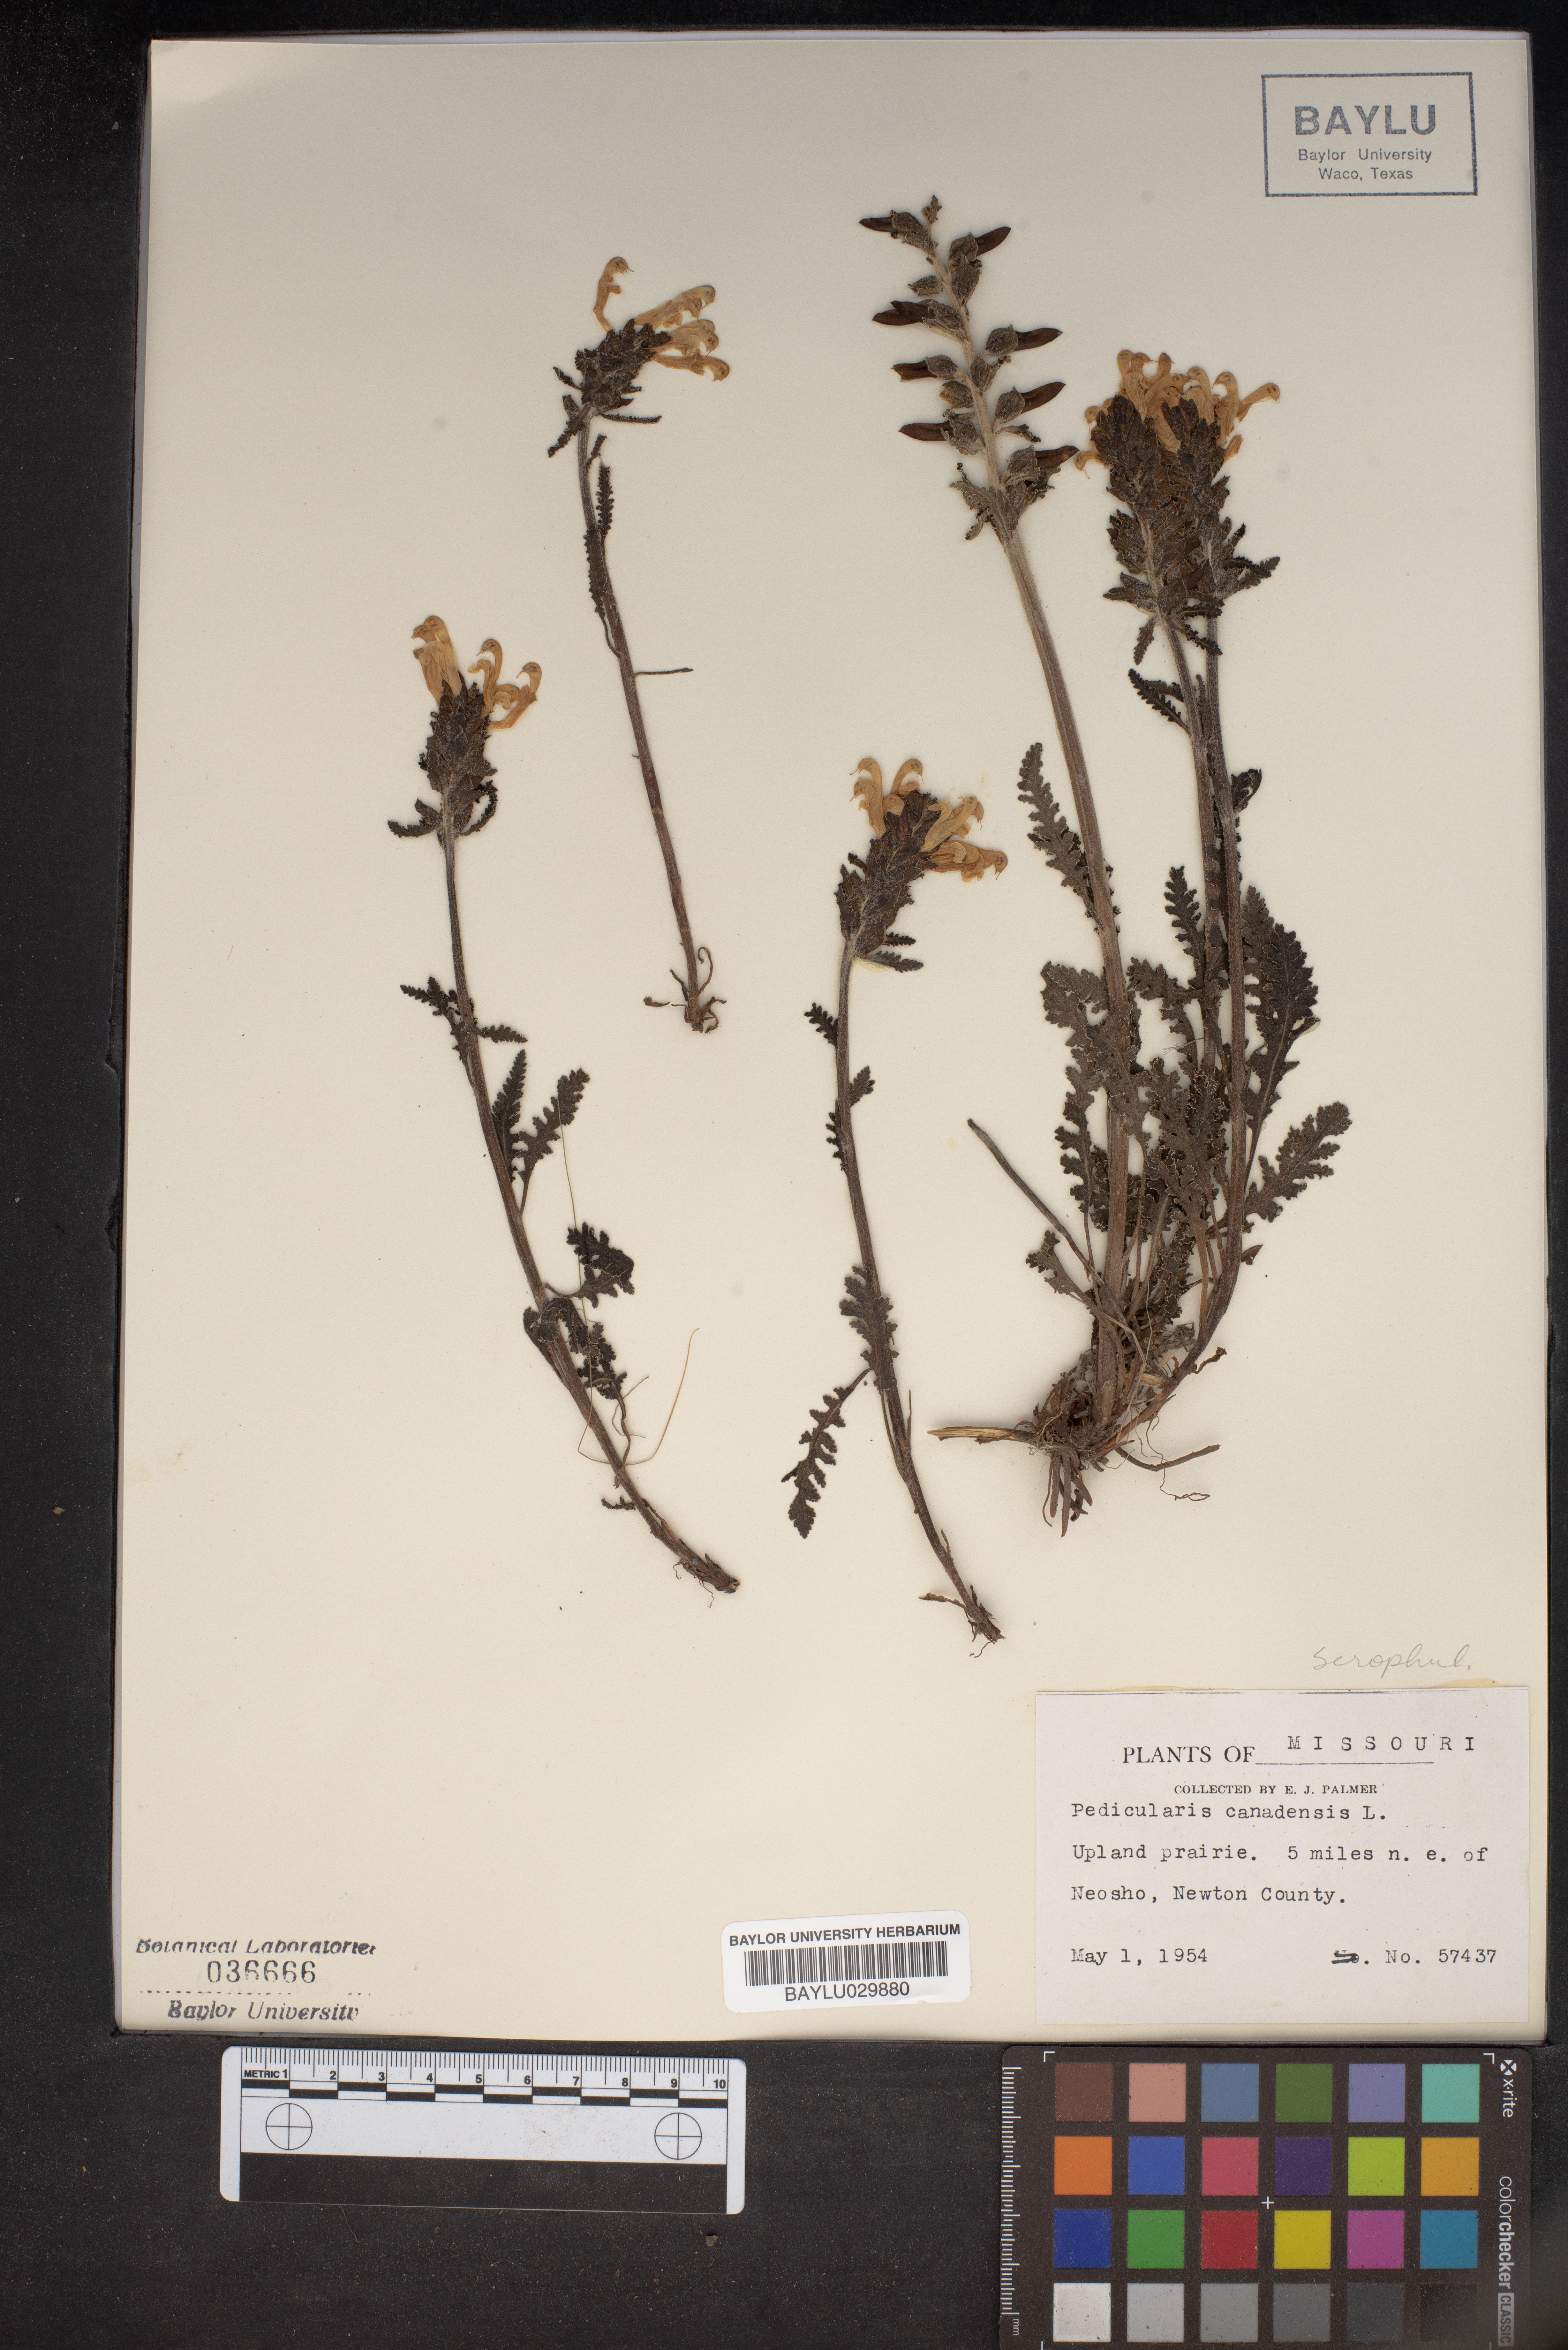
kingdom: Plantae
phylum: Tracheophyta
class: Magnoliopsida
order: Lamiales
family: Orobanchaceae
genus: Pedicularis
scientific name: Pedicularis canadensis
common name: Early lousewort
